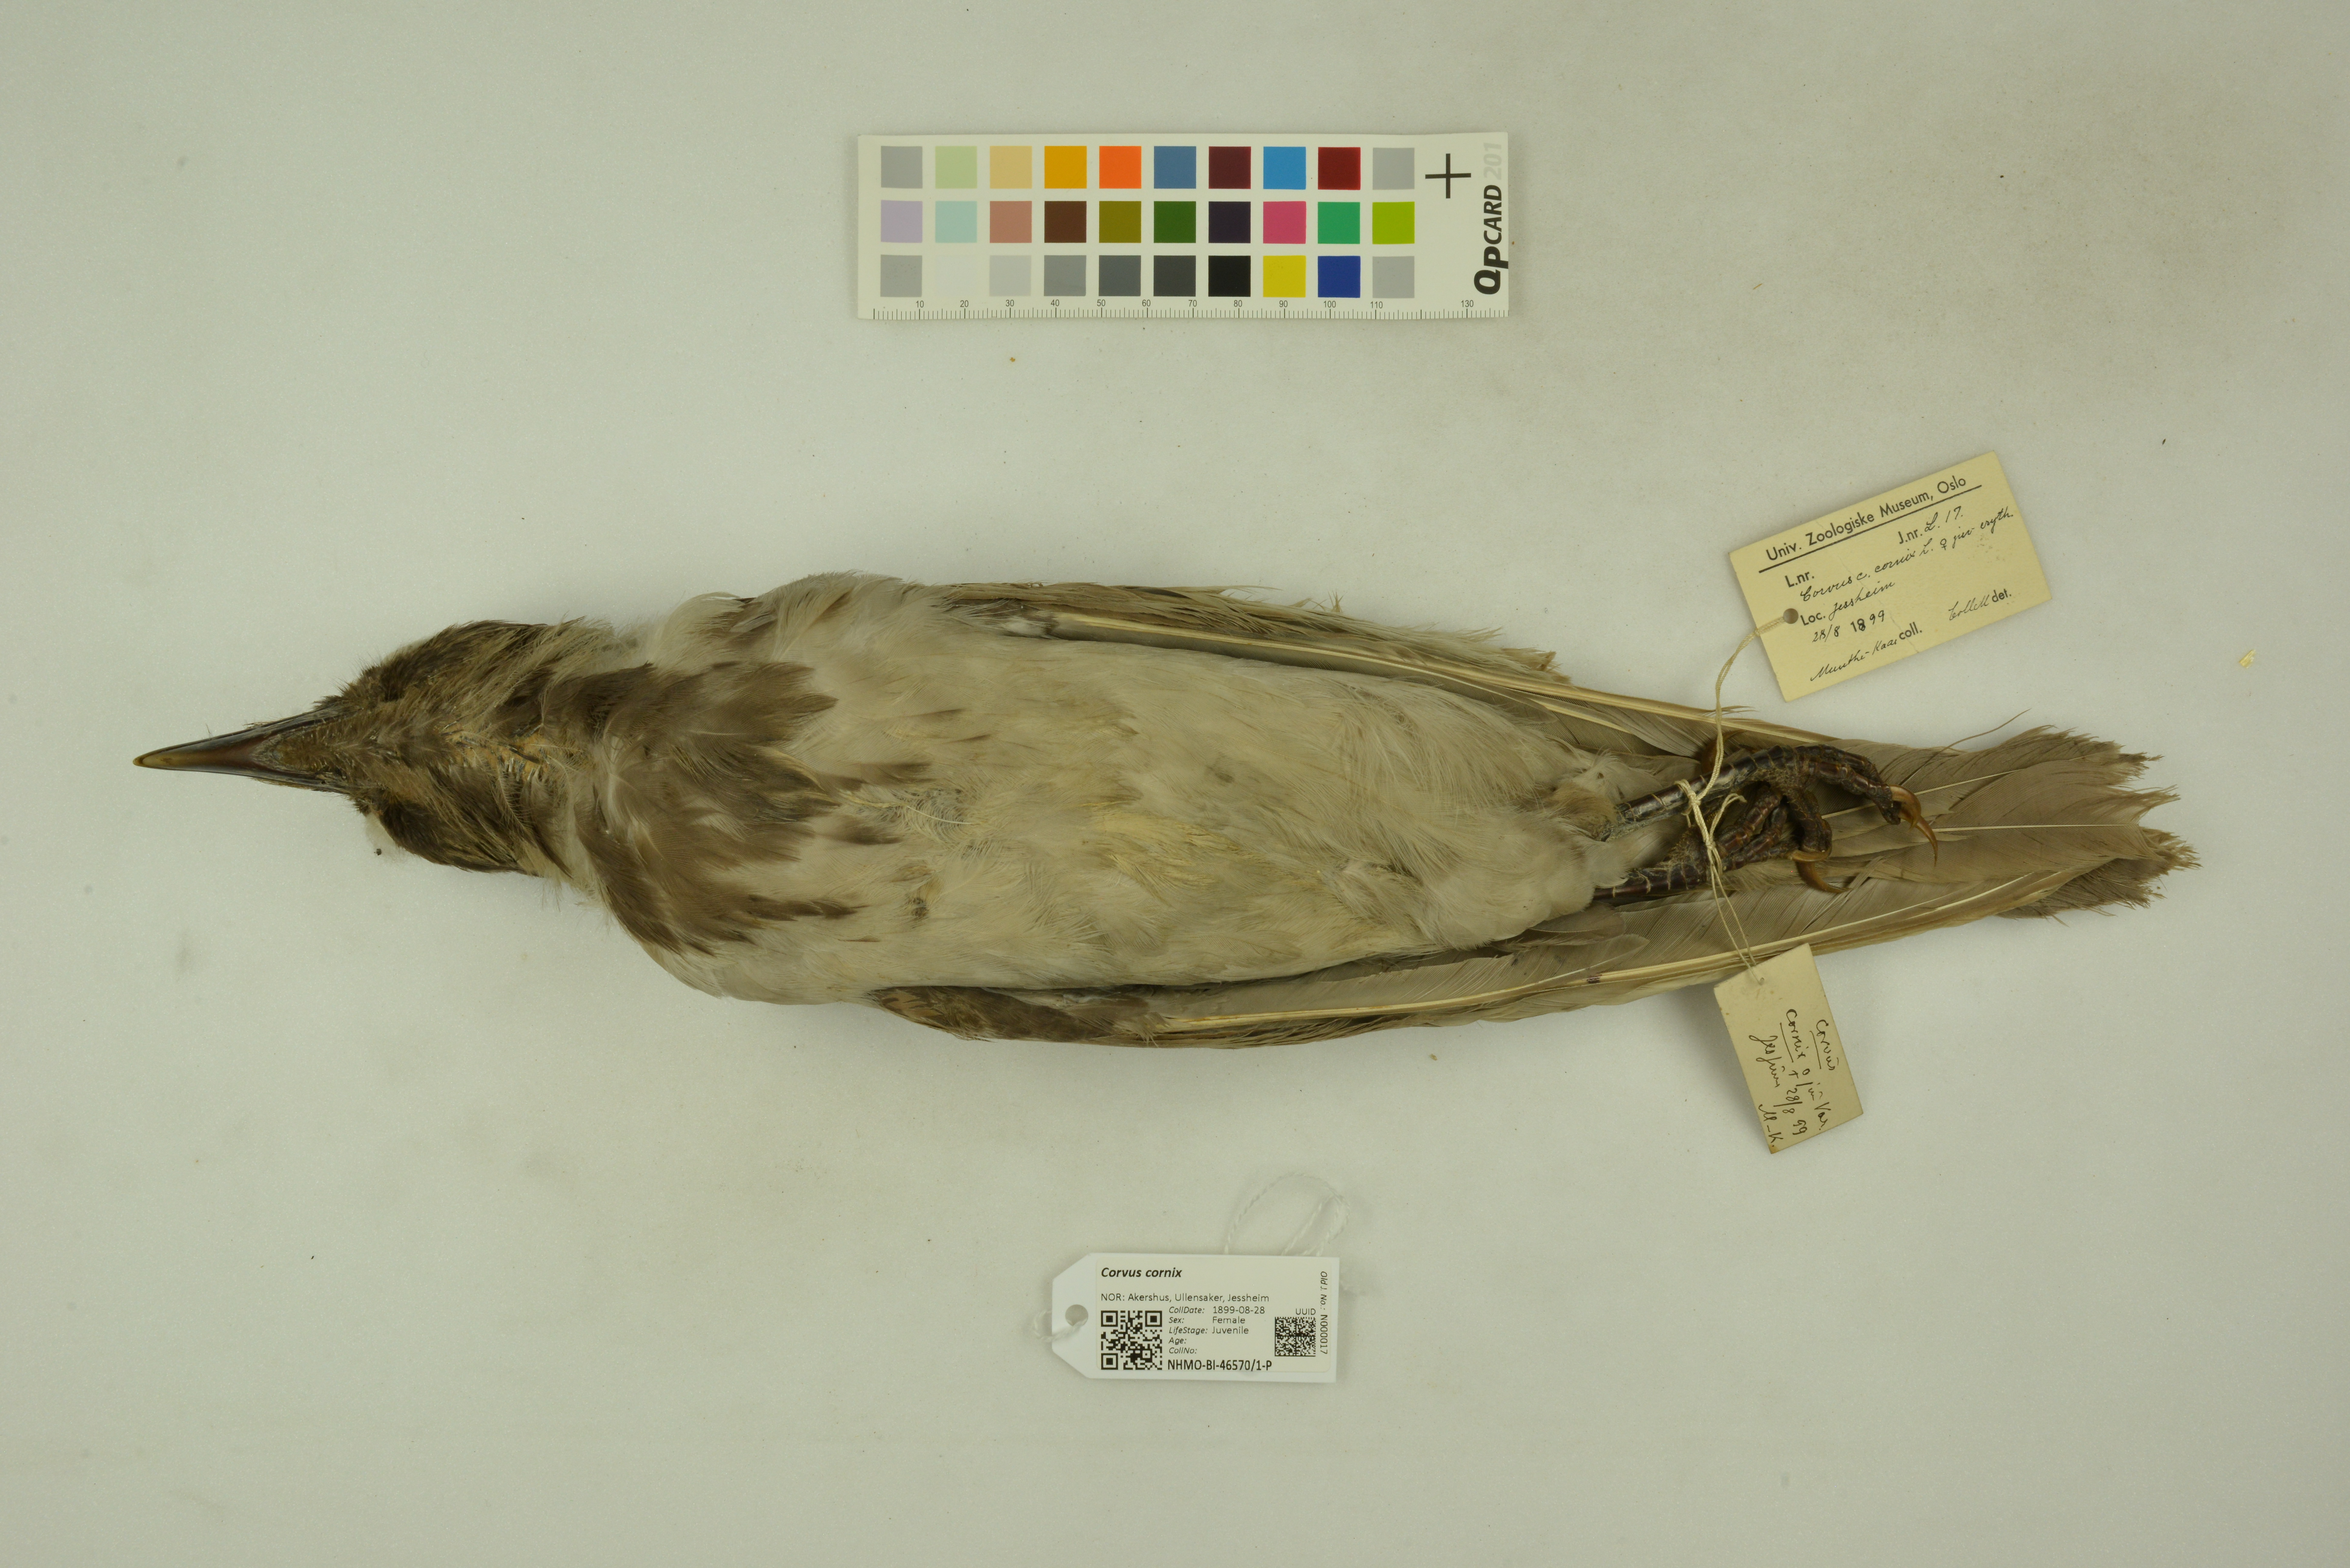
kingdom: Animalia
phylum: Chordata
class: Aves
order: Passeriformes
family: Corvidae
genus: Corvus
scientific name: Corvus cornix
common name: Hooded crow
